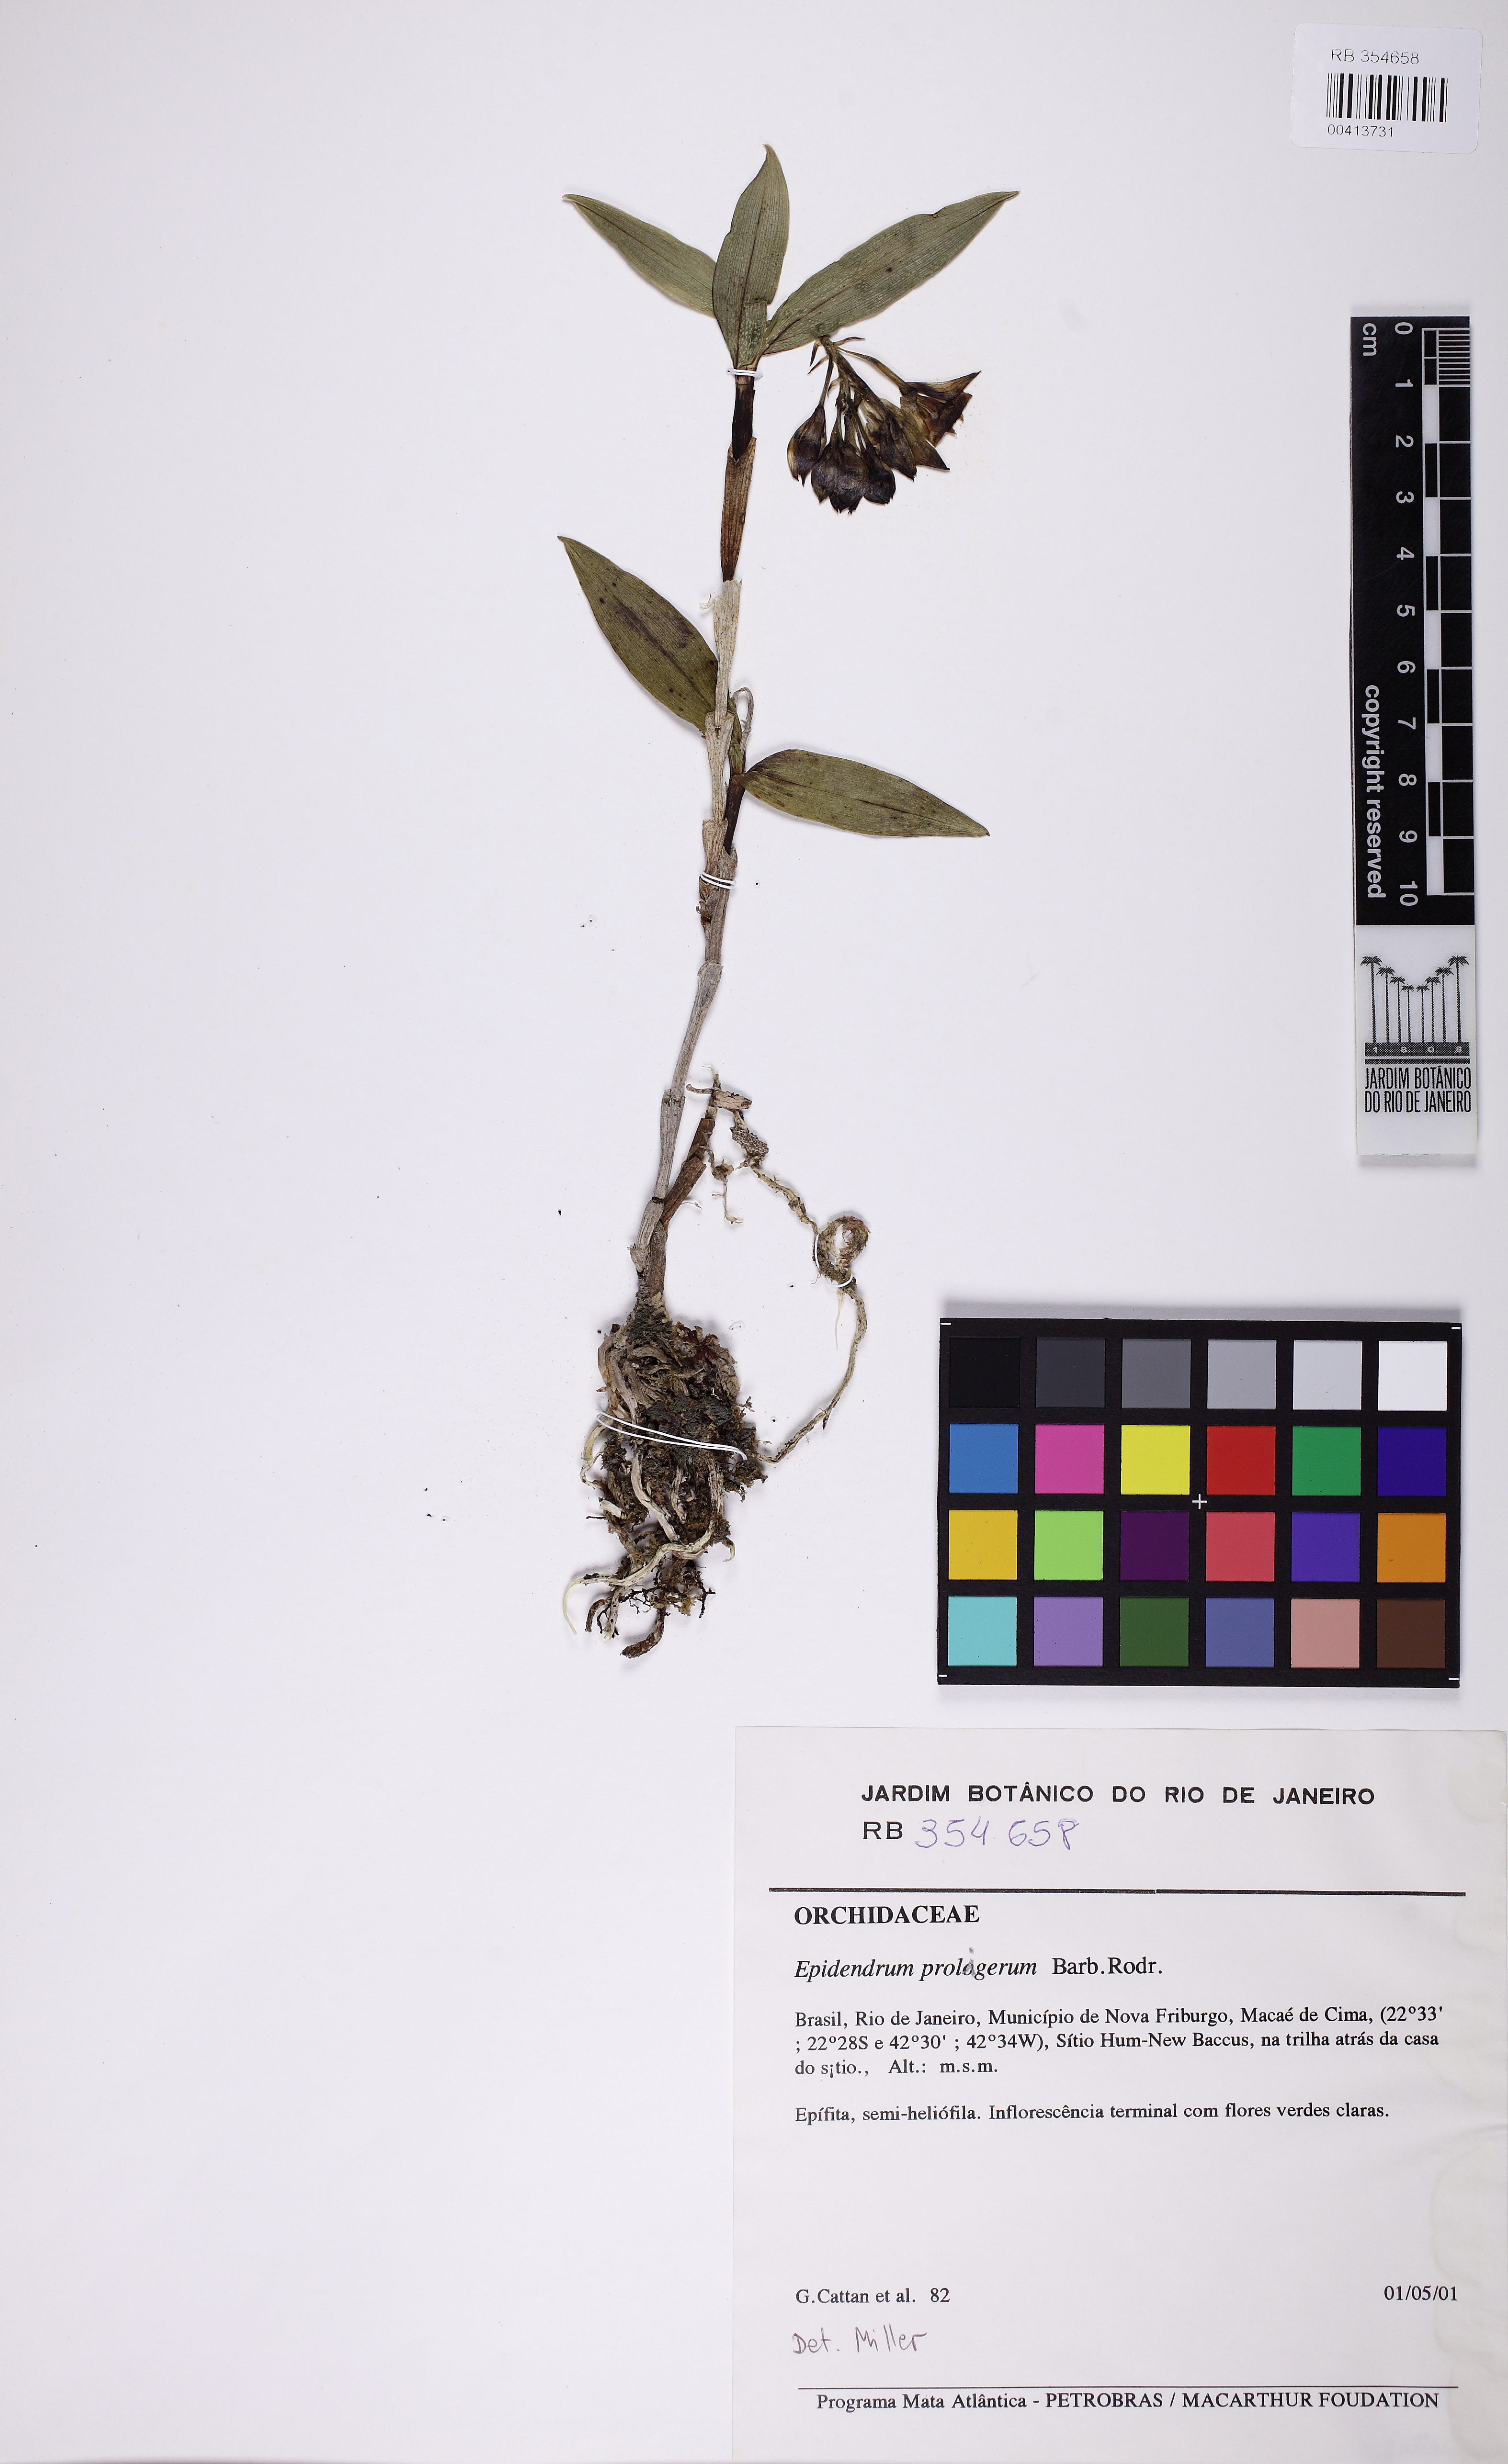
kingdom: Plantae
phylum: Tracheophyta
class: Liliopsida
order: Asparagales
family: Orchidaceae
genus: Epidendrum
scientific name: Epidendrum proligerum
